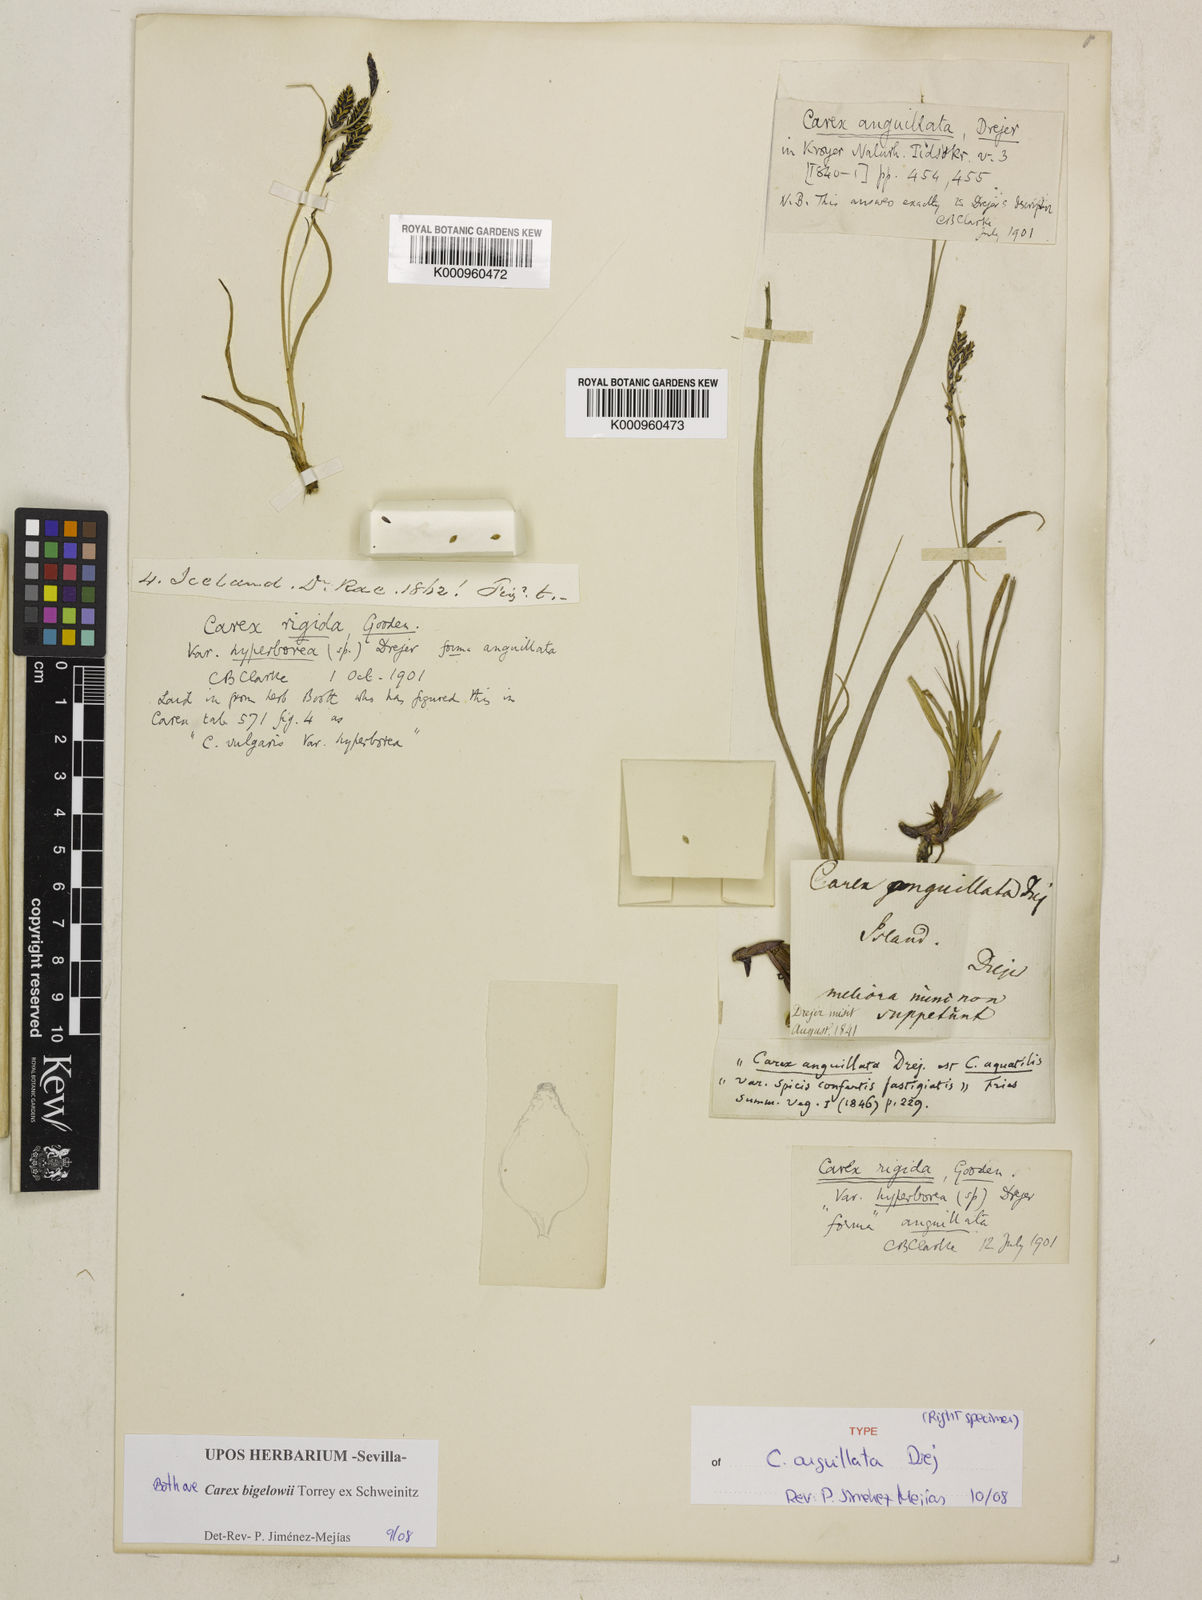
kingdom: Plantae
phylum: Tracheophyta
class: Liliopsida
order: Poales
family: Cyperaceae
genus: Carex
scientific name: Carex bigelowii
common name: Stiff sedge
